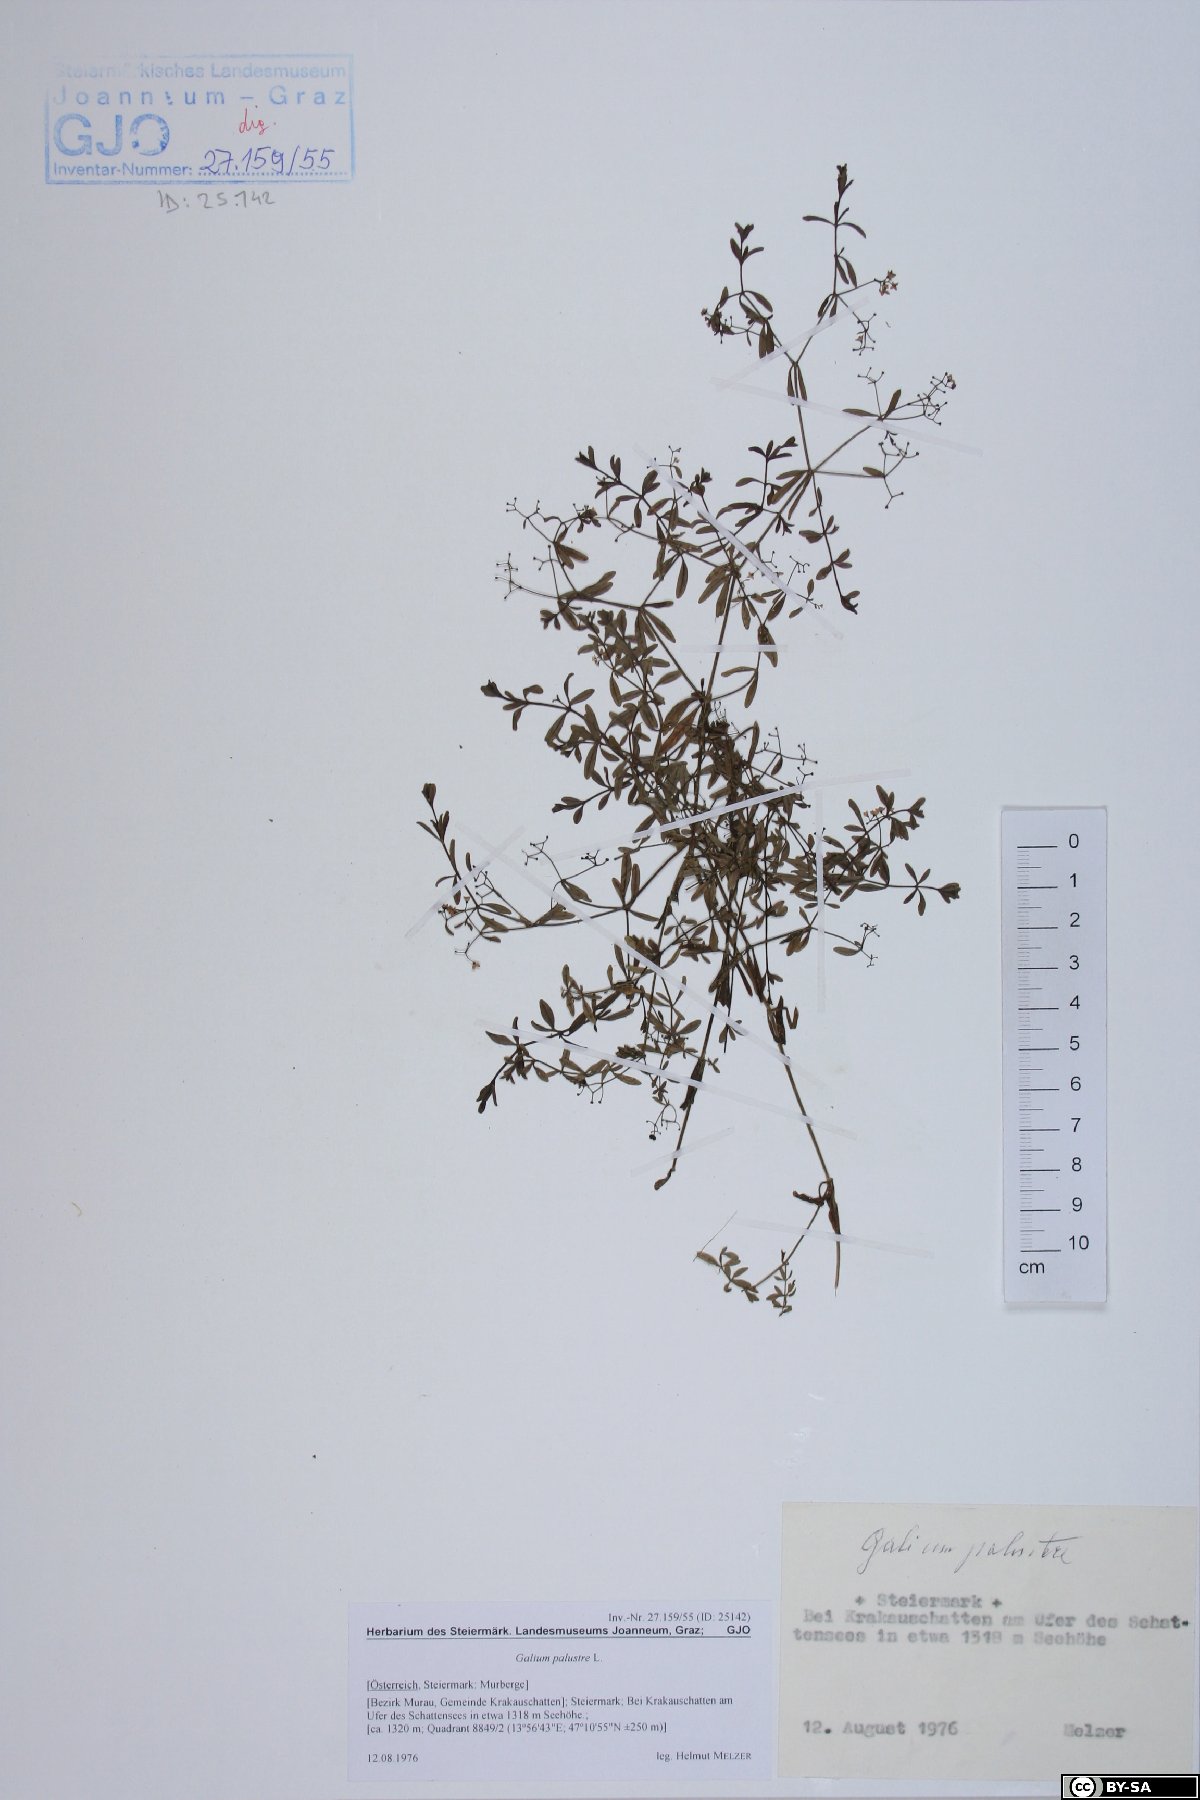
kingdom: Plantae
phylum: Tracheophyta
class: Magnoliopsida
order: Gentianales
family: Rubiaceae
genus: Galium
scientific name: Galium palustre
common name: Common marsh-bedstraw
